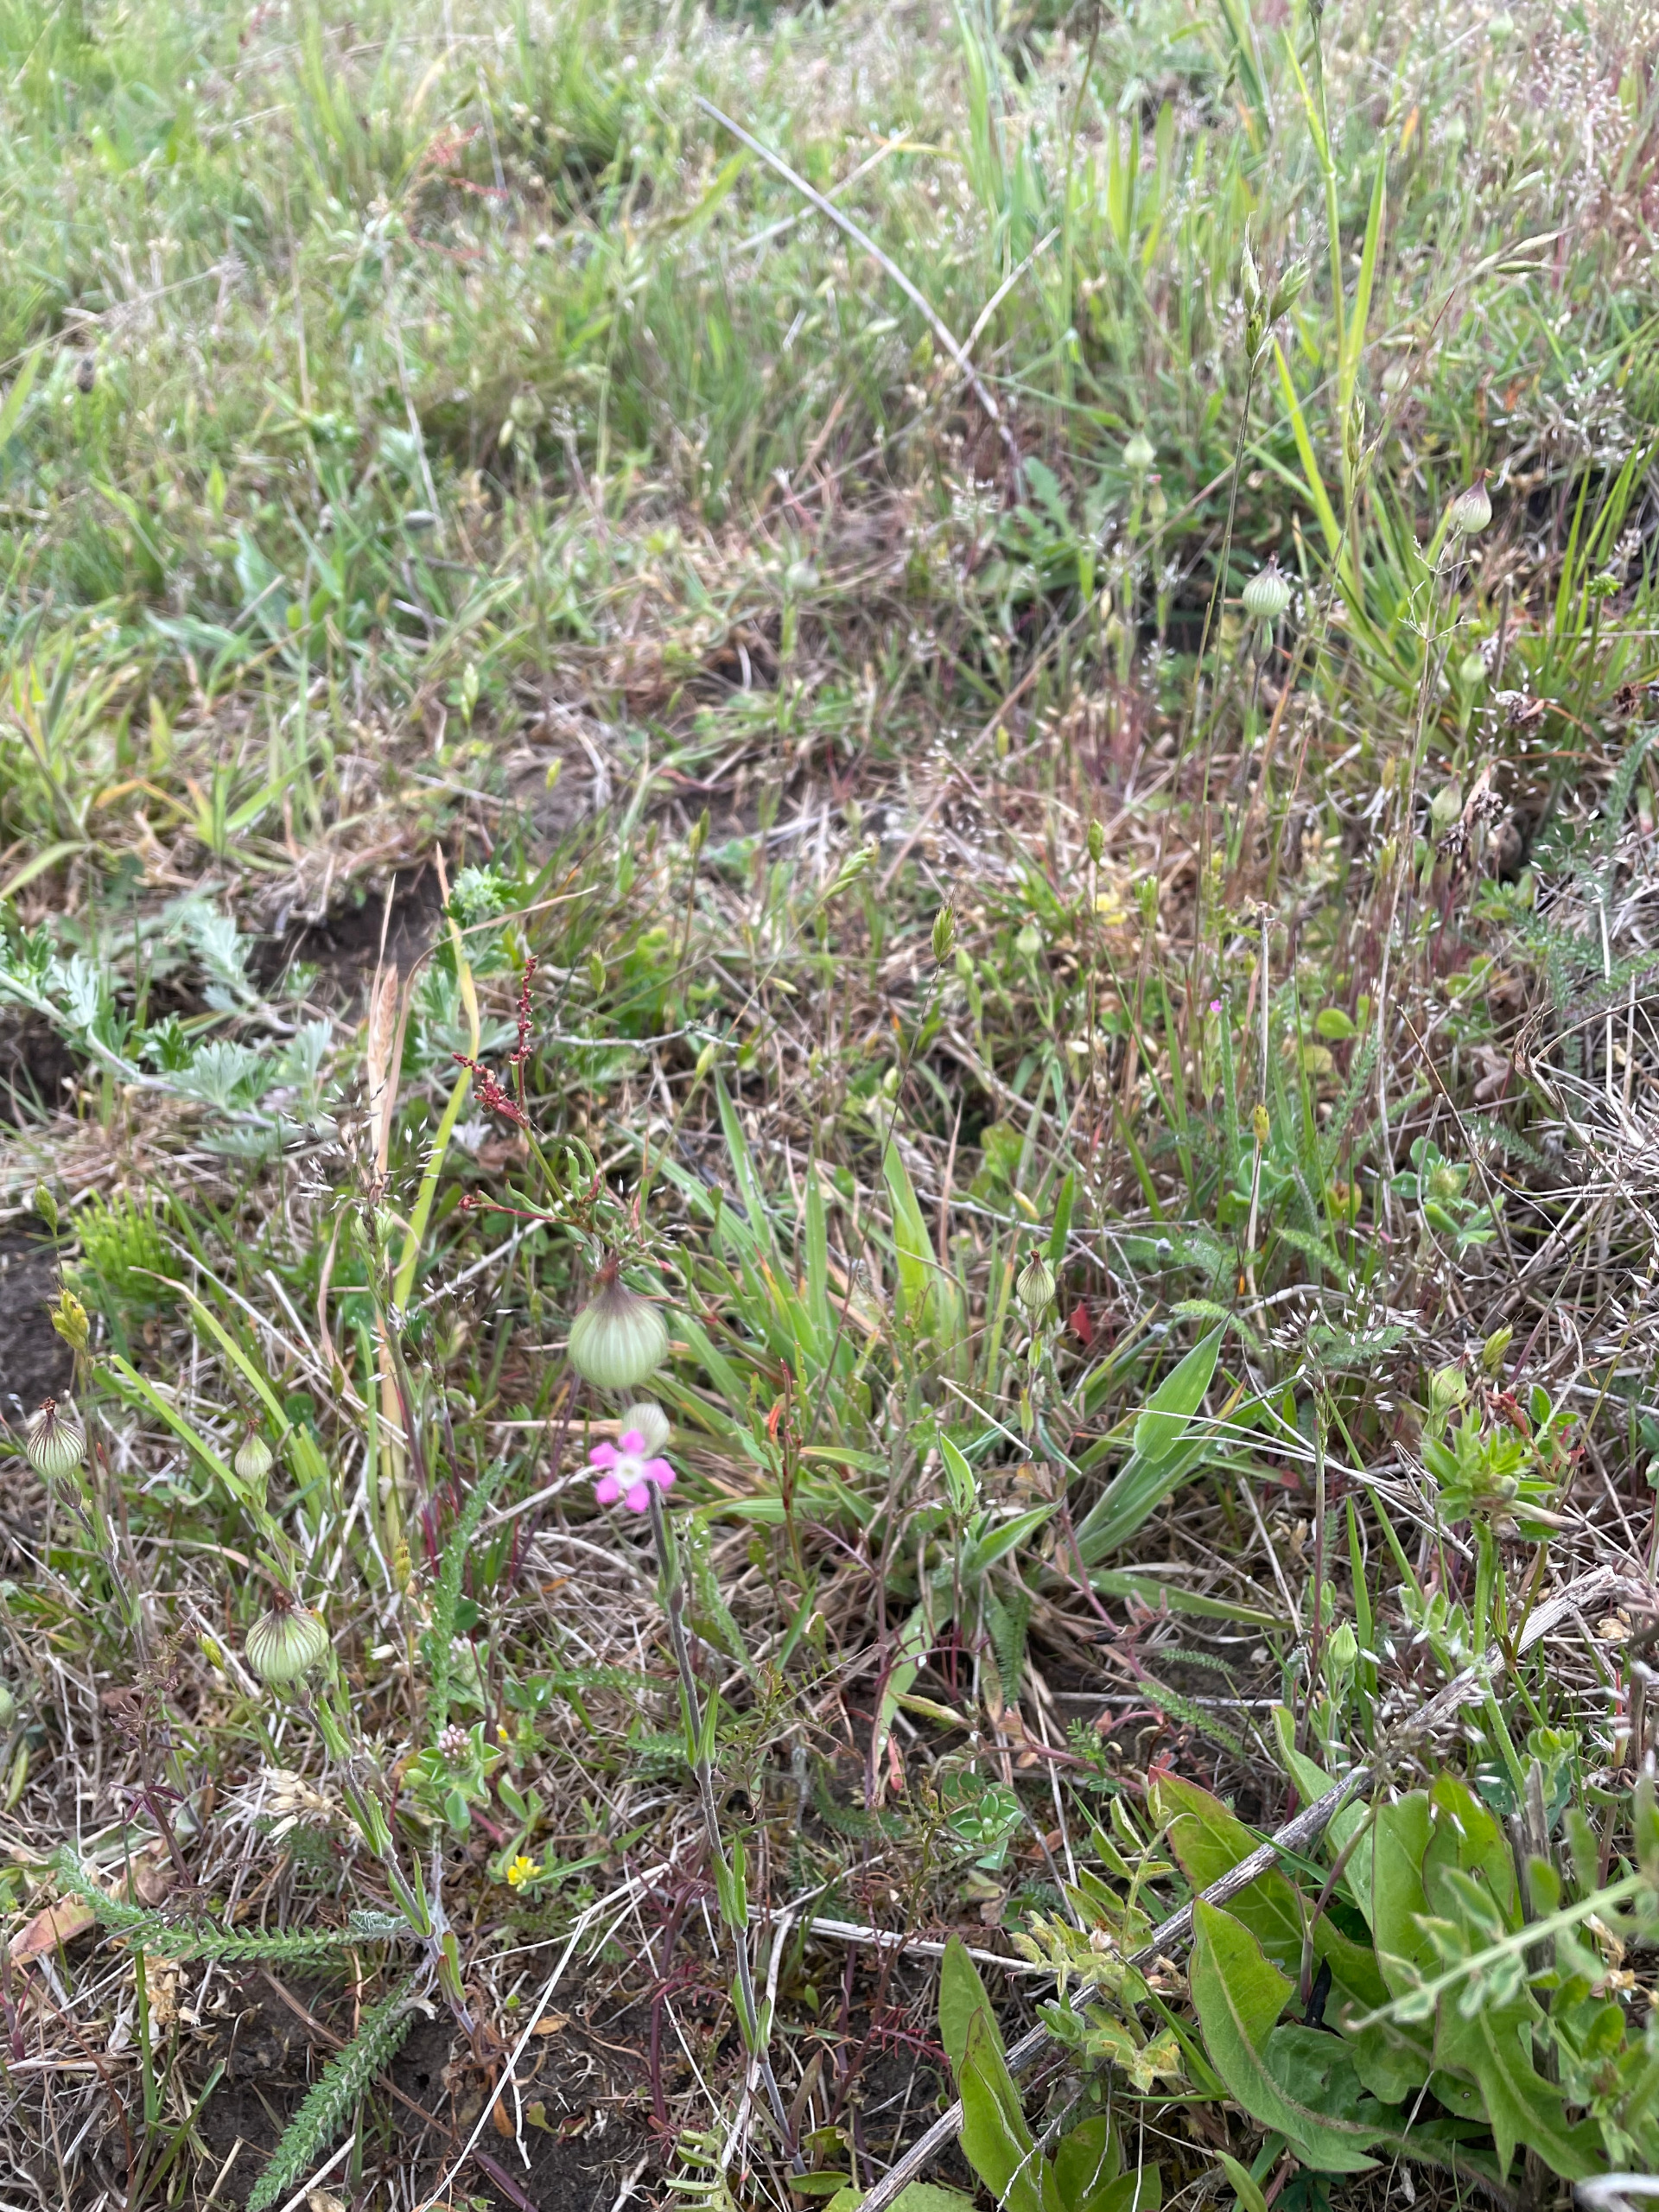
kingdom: Plantae
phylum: Tracheophyta
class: Magnoliopsida
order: Caryophyllales
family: Caryophyllaceae
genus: Silene
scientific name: Silene conica
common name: Kegle-limurt
